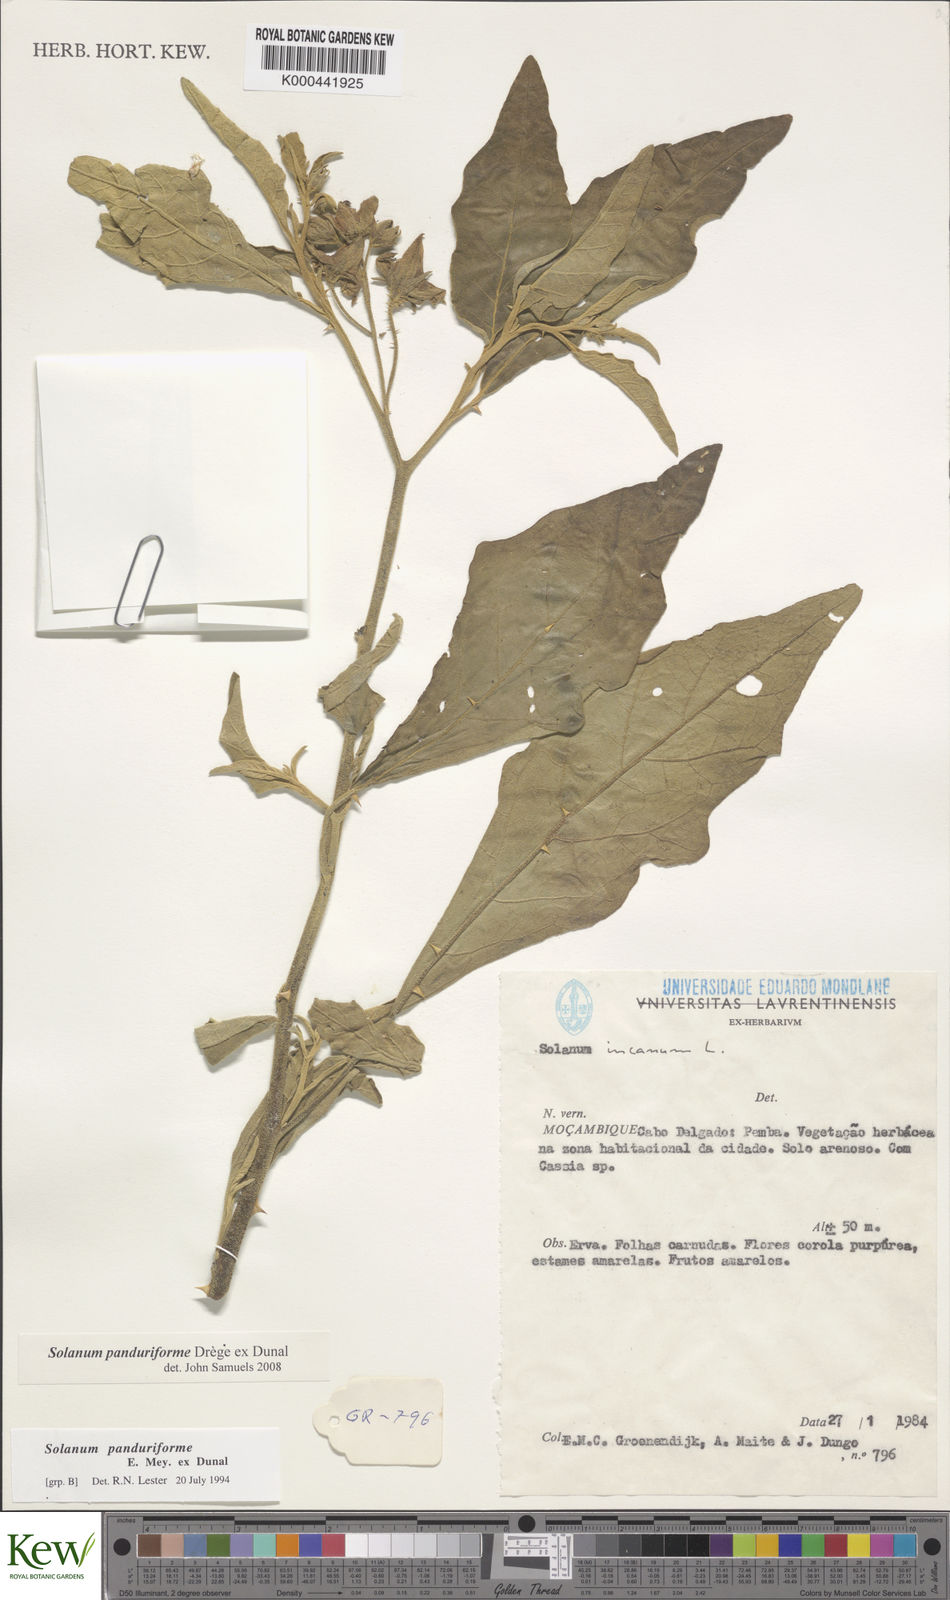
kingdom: Plantae
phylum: Tracheophyta
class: Magnoliopsida
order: Solanales
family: Solanaceae
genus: Solanum
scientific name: Solanum campylacanthum
